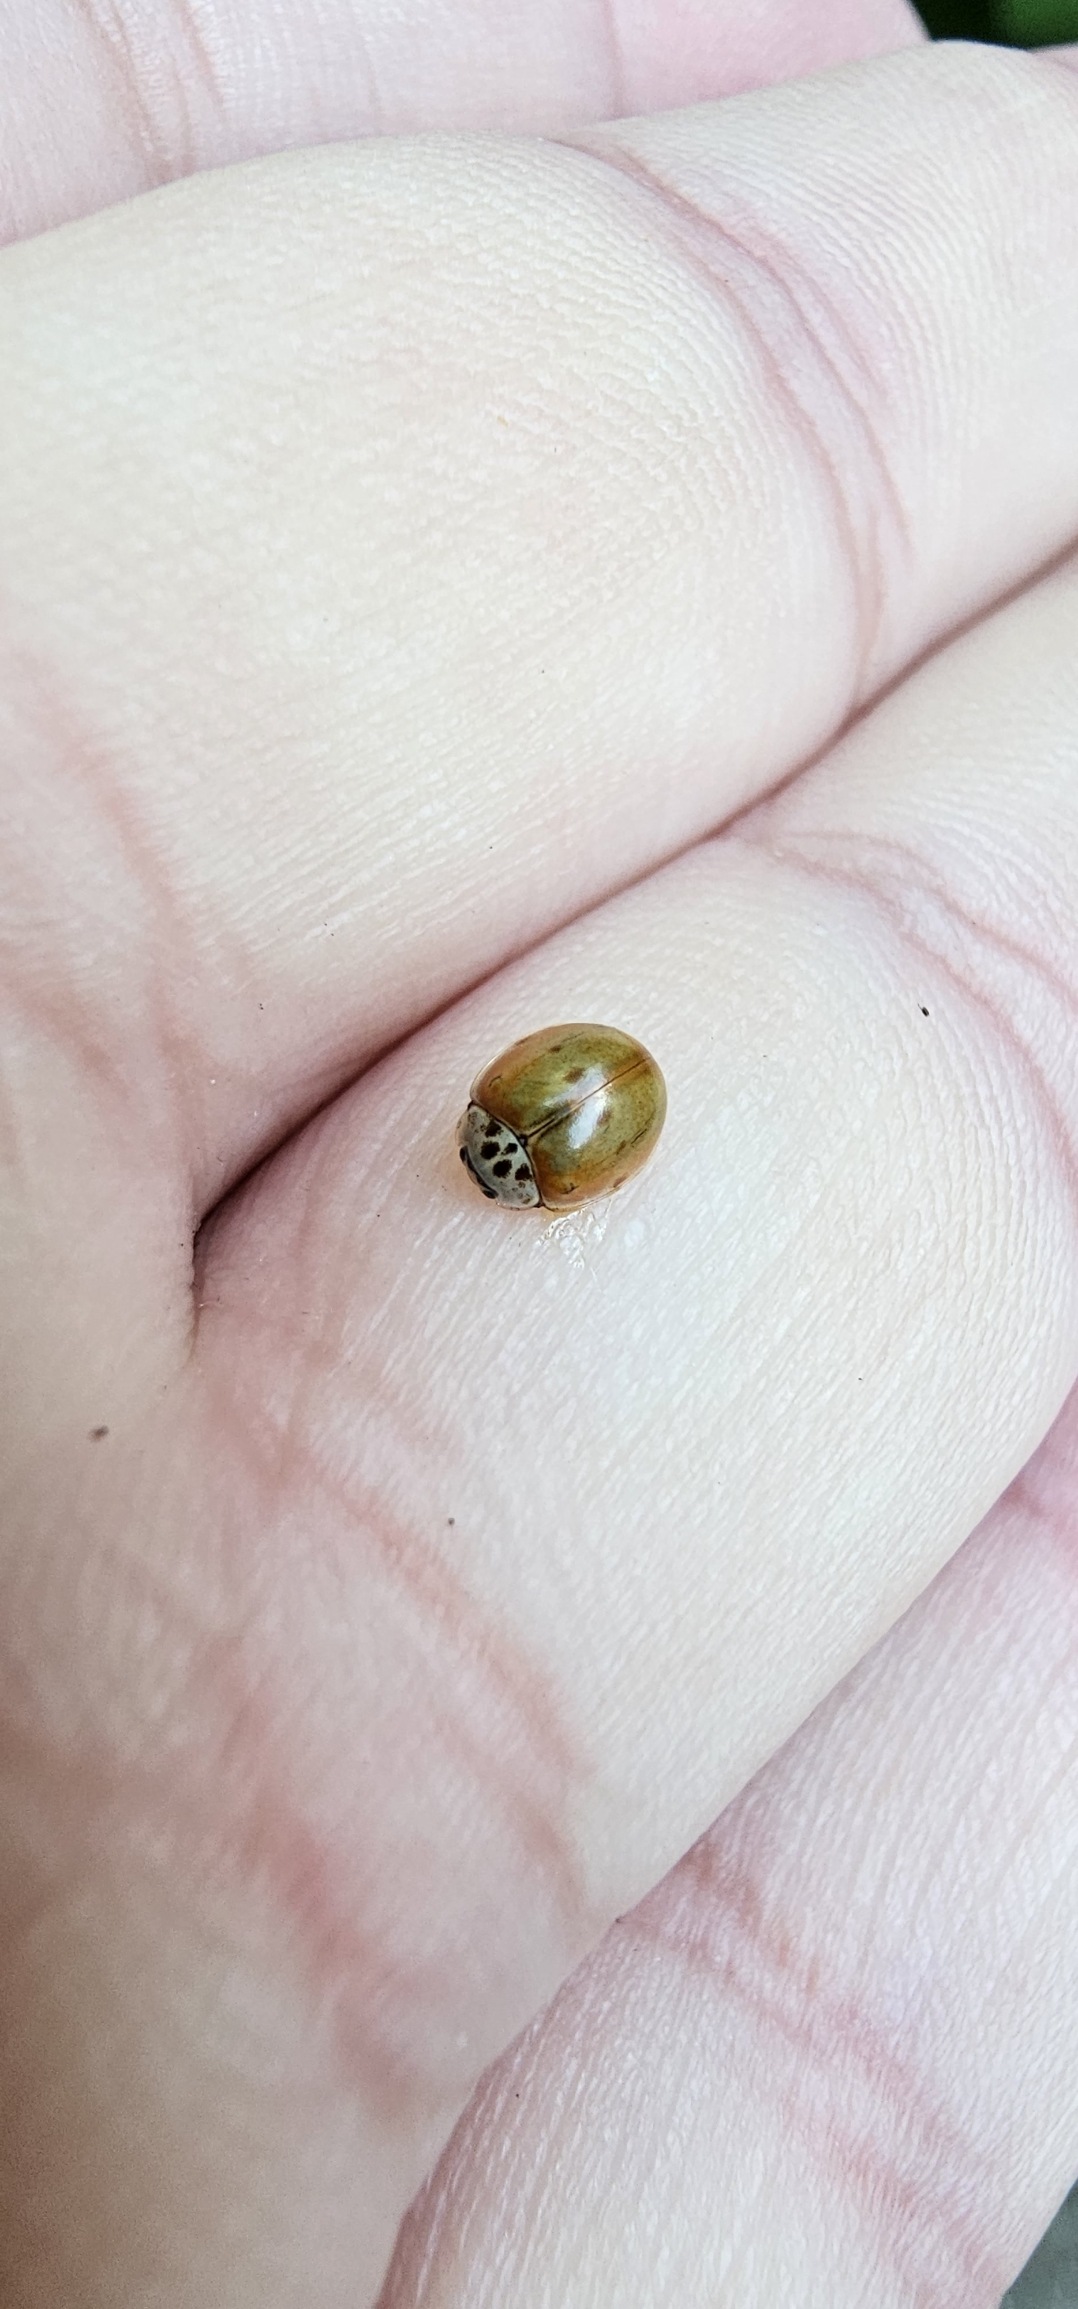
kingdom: Animalia
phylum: Arthropoda
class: Insecta
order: Coleoptera
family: Coccinellidae
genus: Adalia
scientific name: Adalia decempunctata
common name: Tiplettet mariehøne
